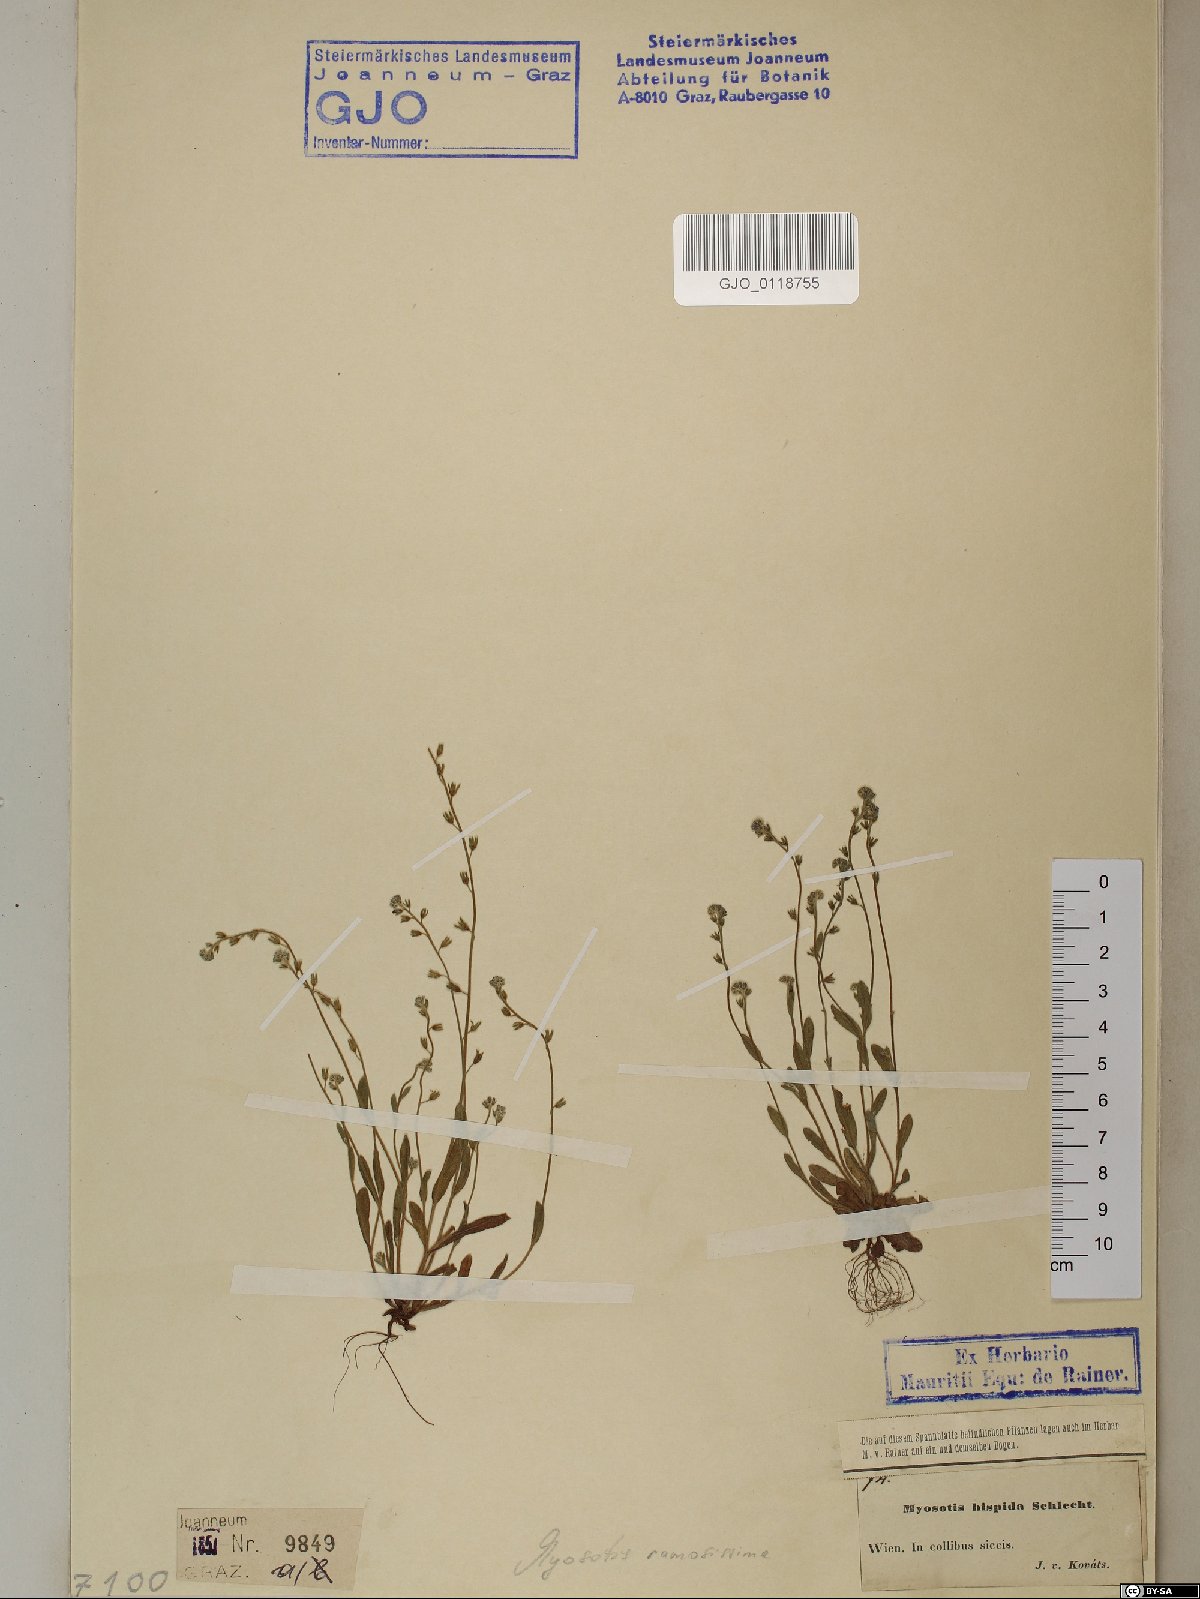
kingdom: Plantae
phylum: Tracheophyta
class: Magnoliopsida
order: Boraginales
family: Boraginaceae
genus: Myosotis
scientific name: Myosotis ramosissima
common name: Early forget-me-not
